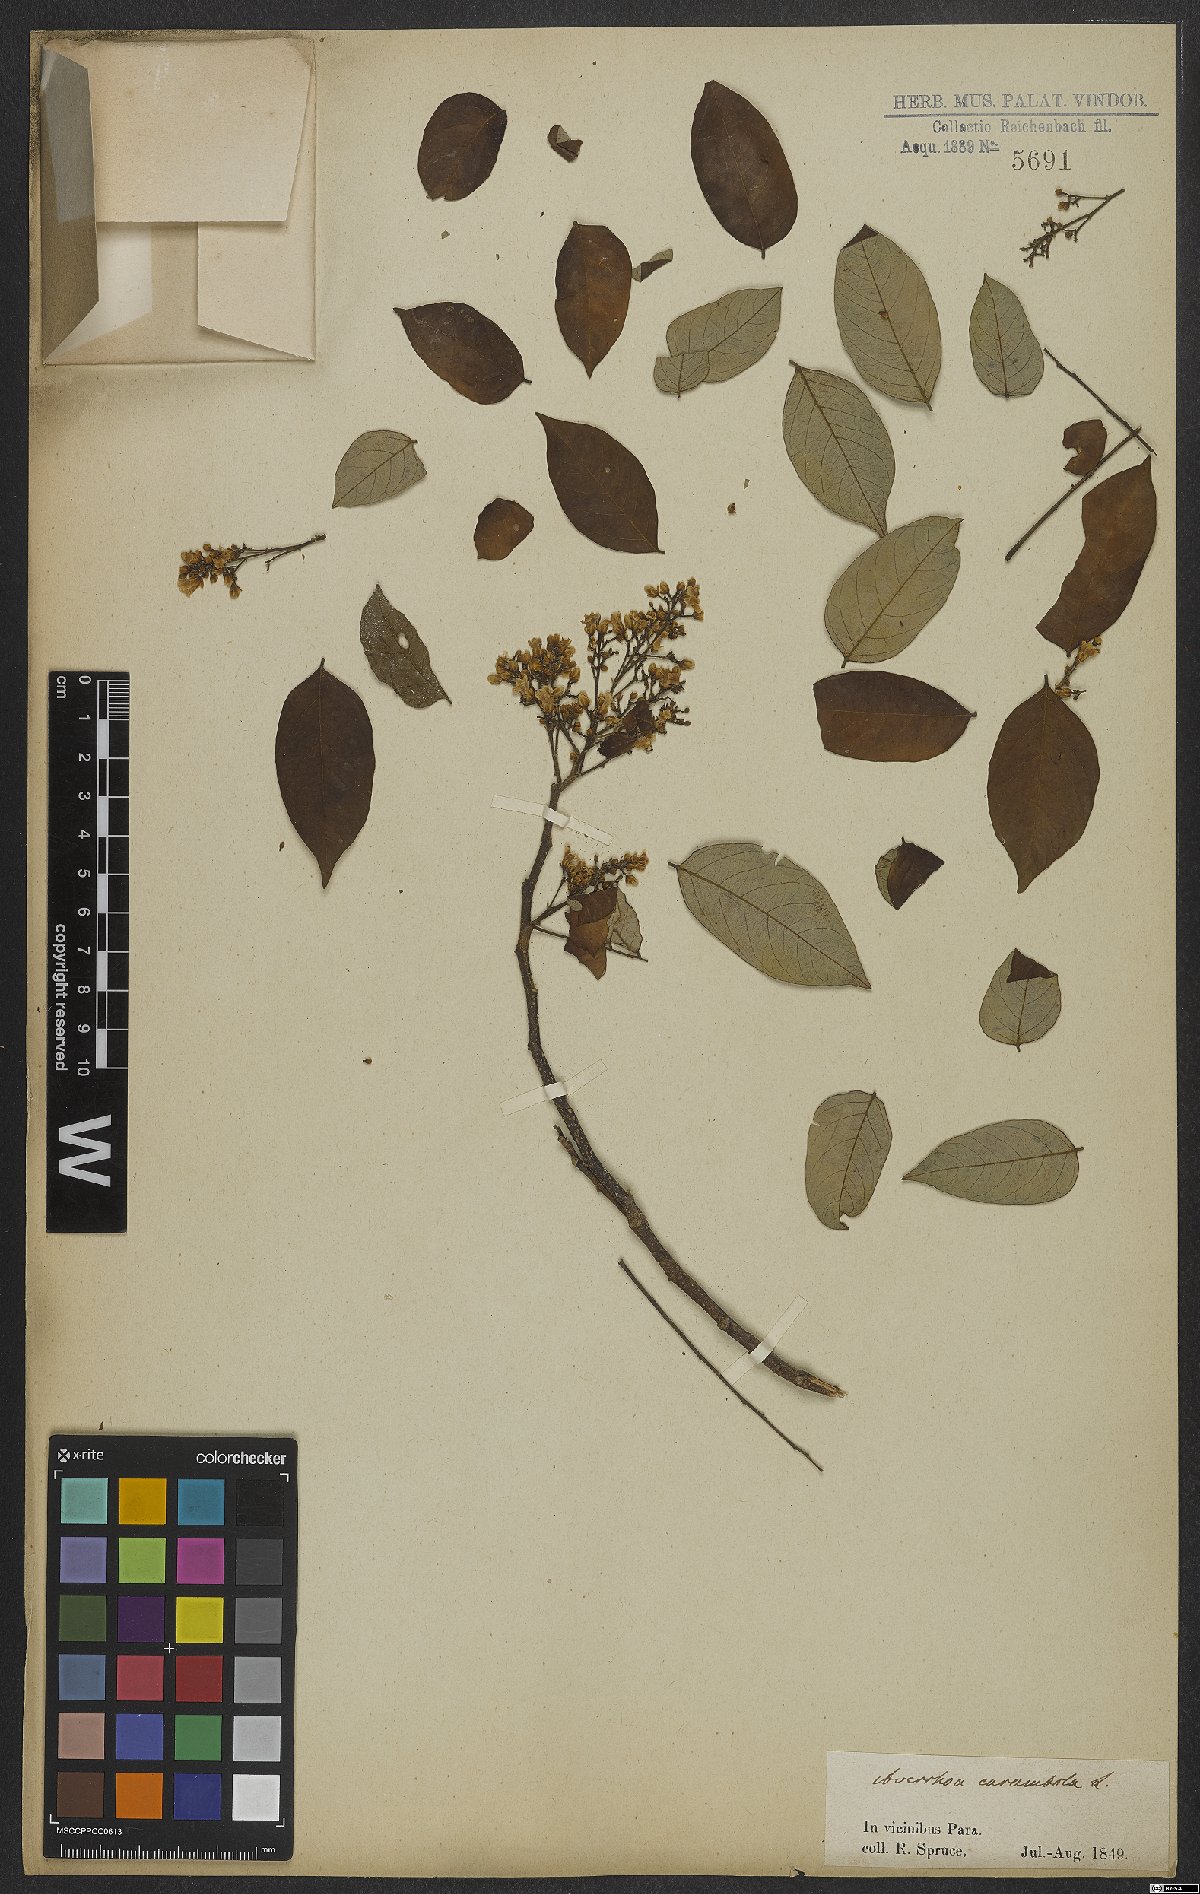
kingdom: Plantae
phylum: Tracheophyta
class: Magnoliopsida
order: Oxalidales
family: Oxalidaceae
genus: Averrhoa
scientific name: Averrhoa carambola
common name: Blimbing
